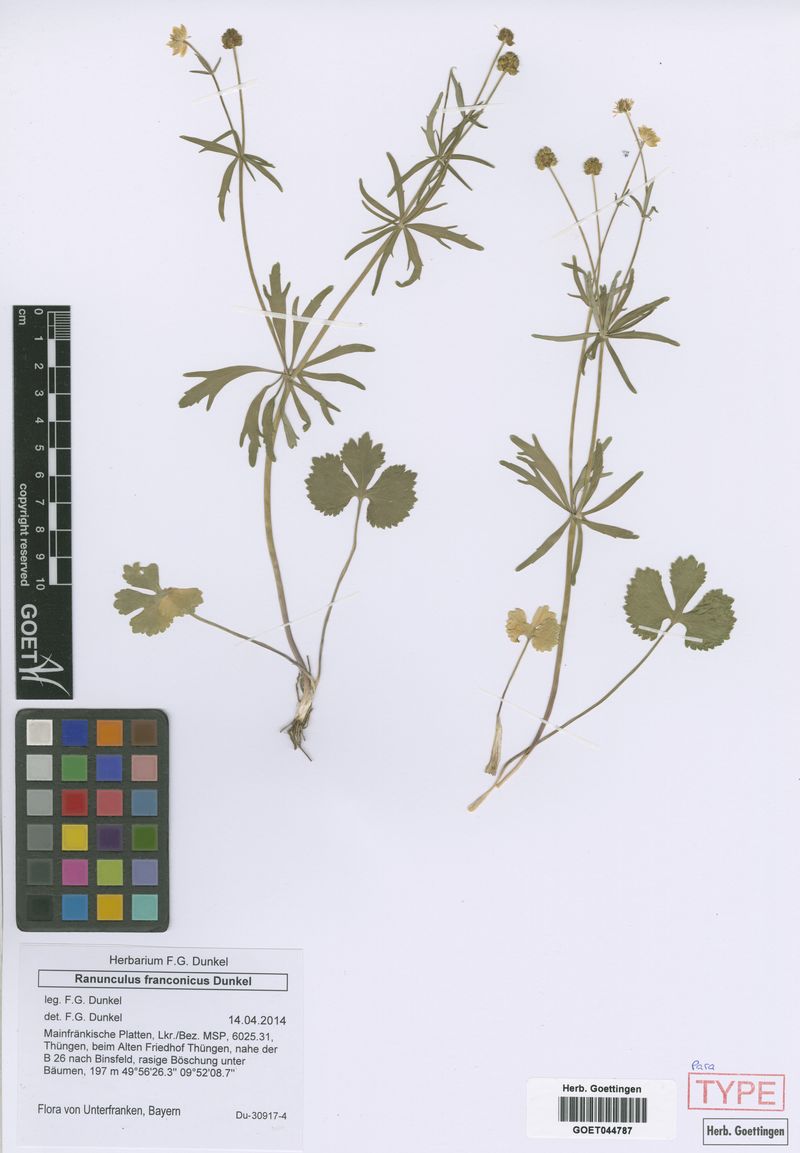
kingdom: Plantae
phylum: Tracheophyta
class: Magnoliopsida
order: Ranunculales
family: Ranunculaceae
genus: Ranunculus
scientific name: Ranunculus franconicus
